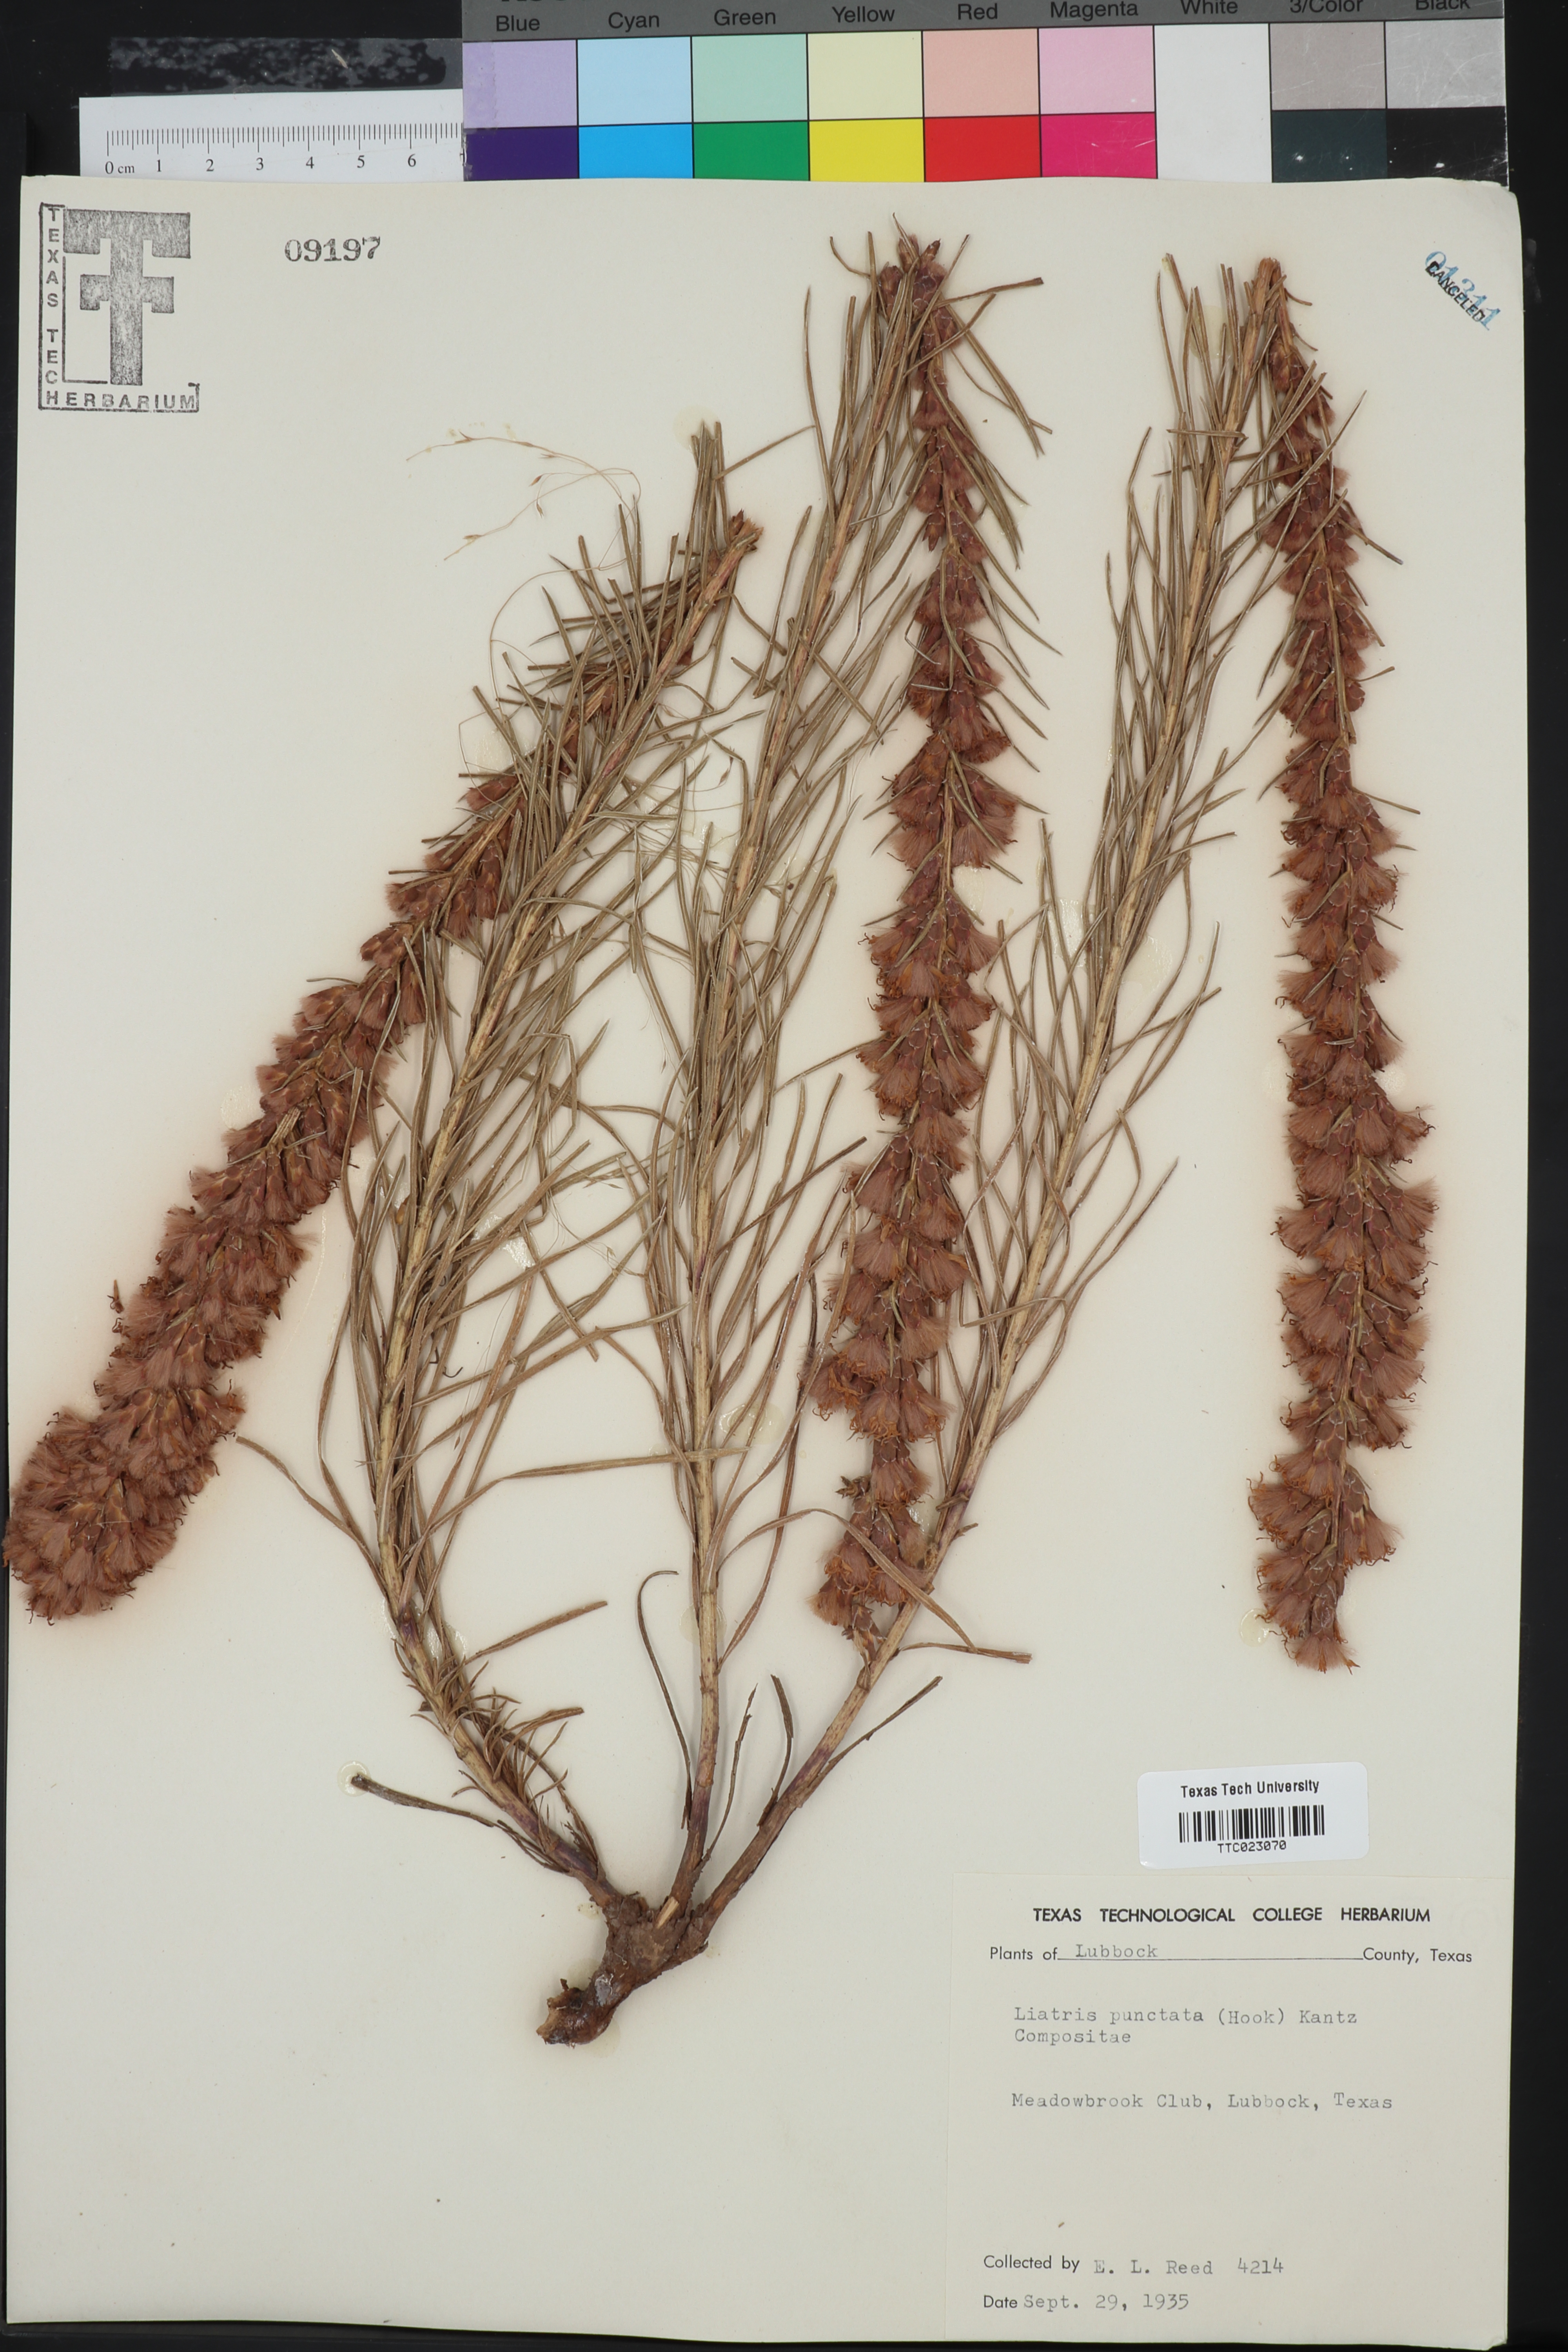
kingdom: Plantae
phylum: Tracheophyta
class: Magnoliopsida
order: Asterales
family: Asteraceae
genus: Liatris
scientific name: Liatris punctata
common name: Dotted gayfeather
